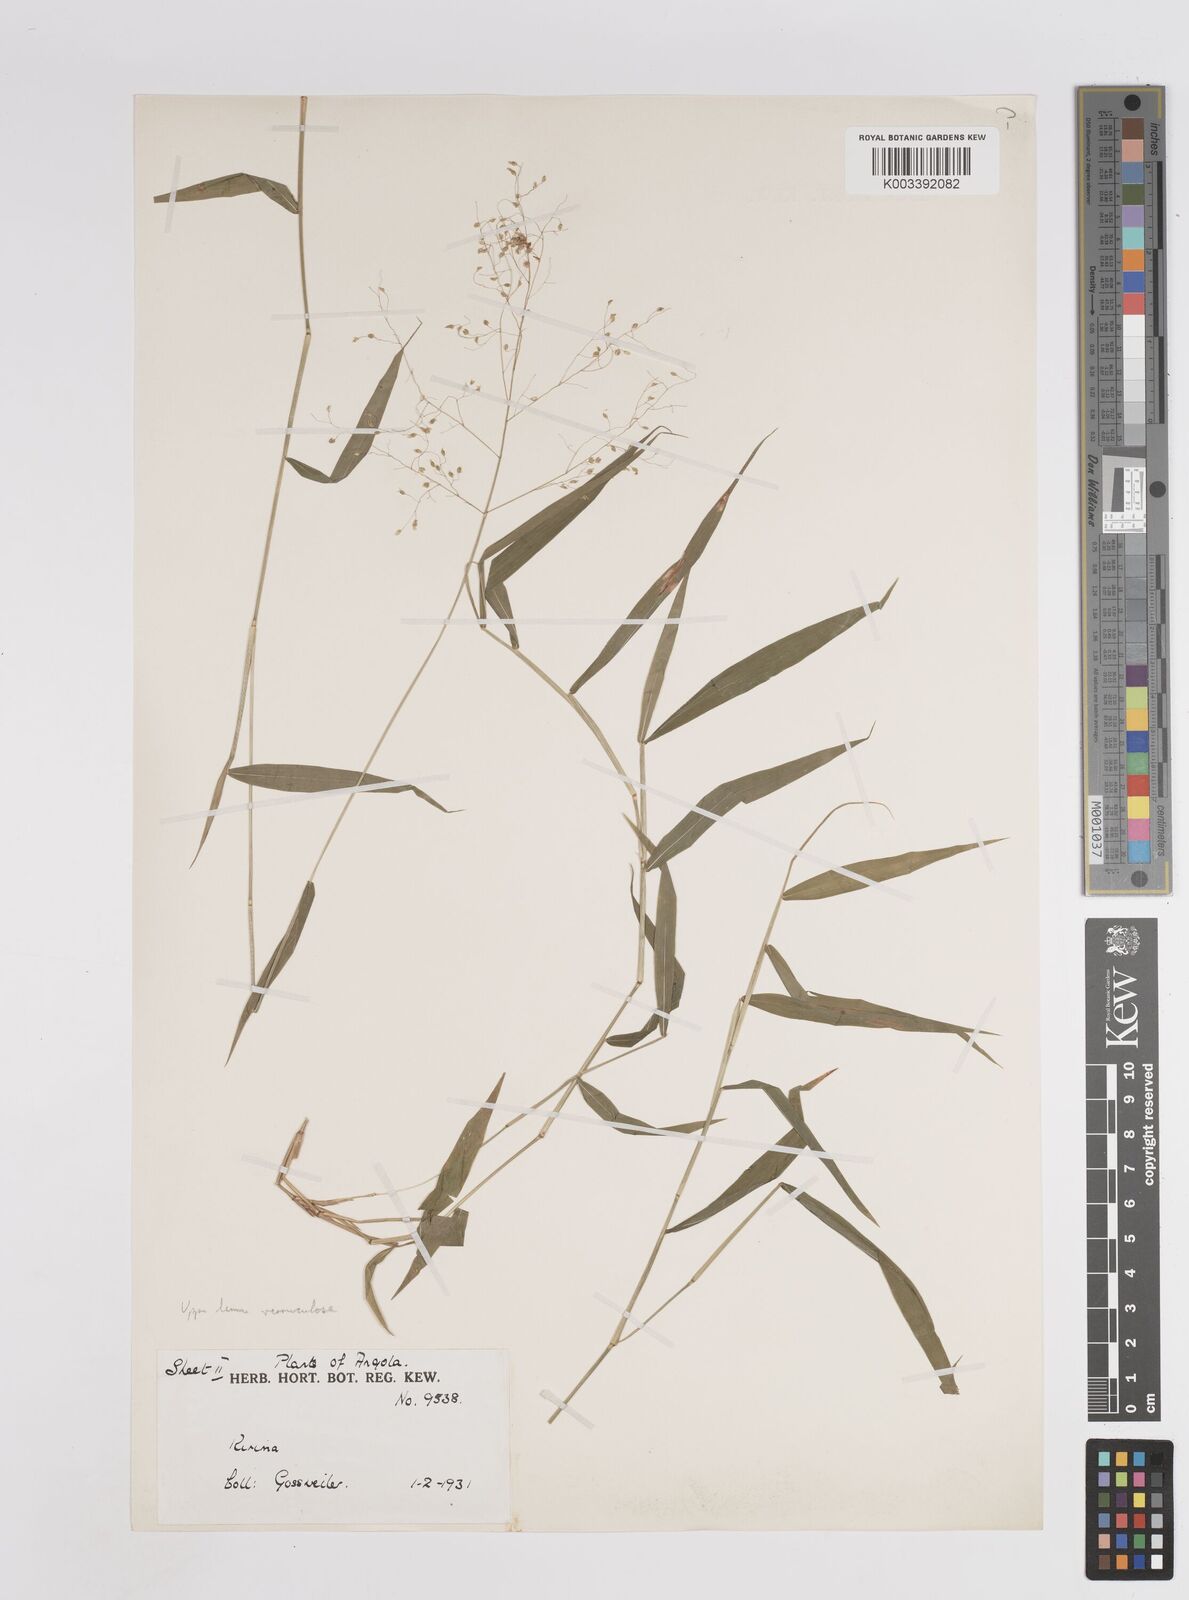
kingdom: Plantae
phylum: Tracheophyta
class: Liliopsida
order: Poales
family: Poaceae
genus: Trichanthecium
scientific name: Trichanthecium gracilicaule
